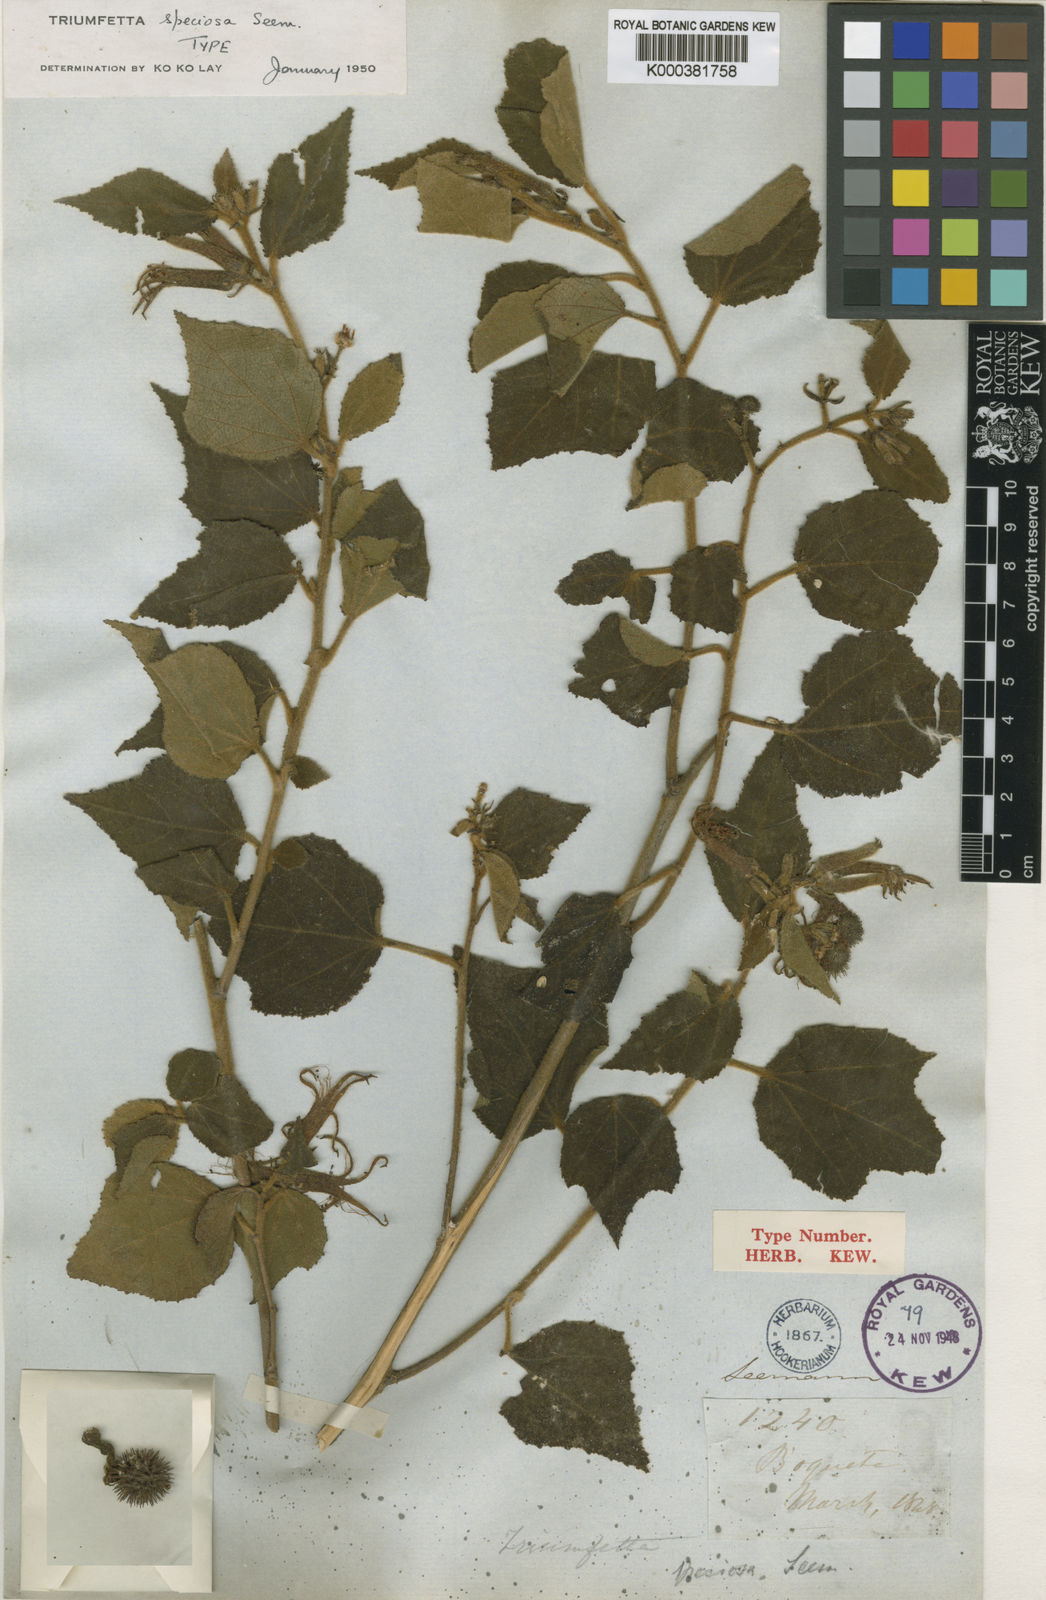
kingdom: Plantae
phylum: Tracheophyta
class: Magnoliopsida
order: Malvales
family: Malvaceae
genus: Triumfetta
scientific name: Triumfetta speciosa
